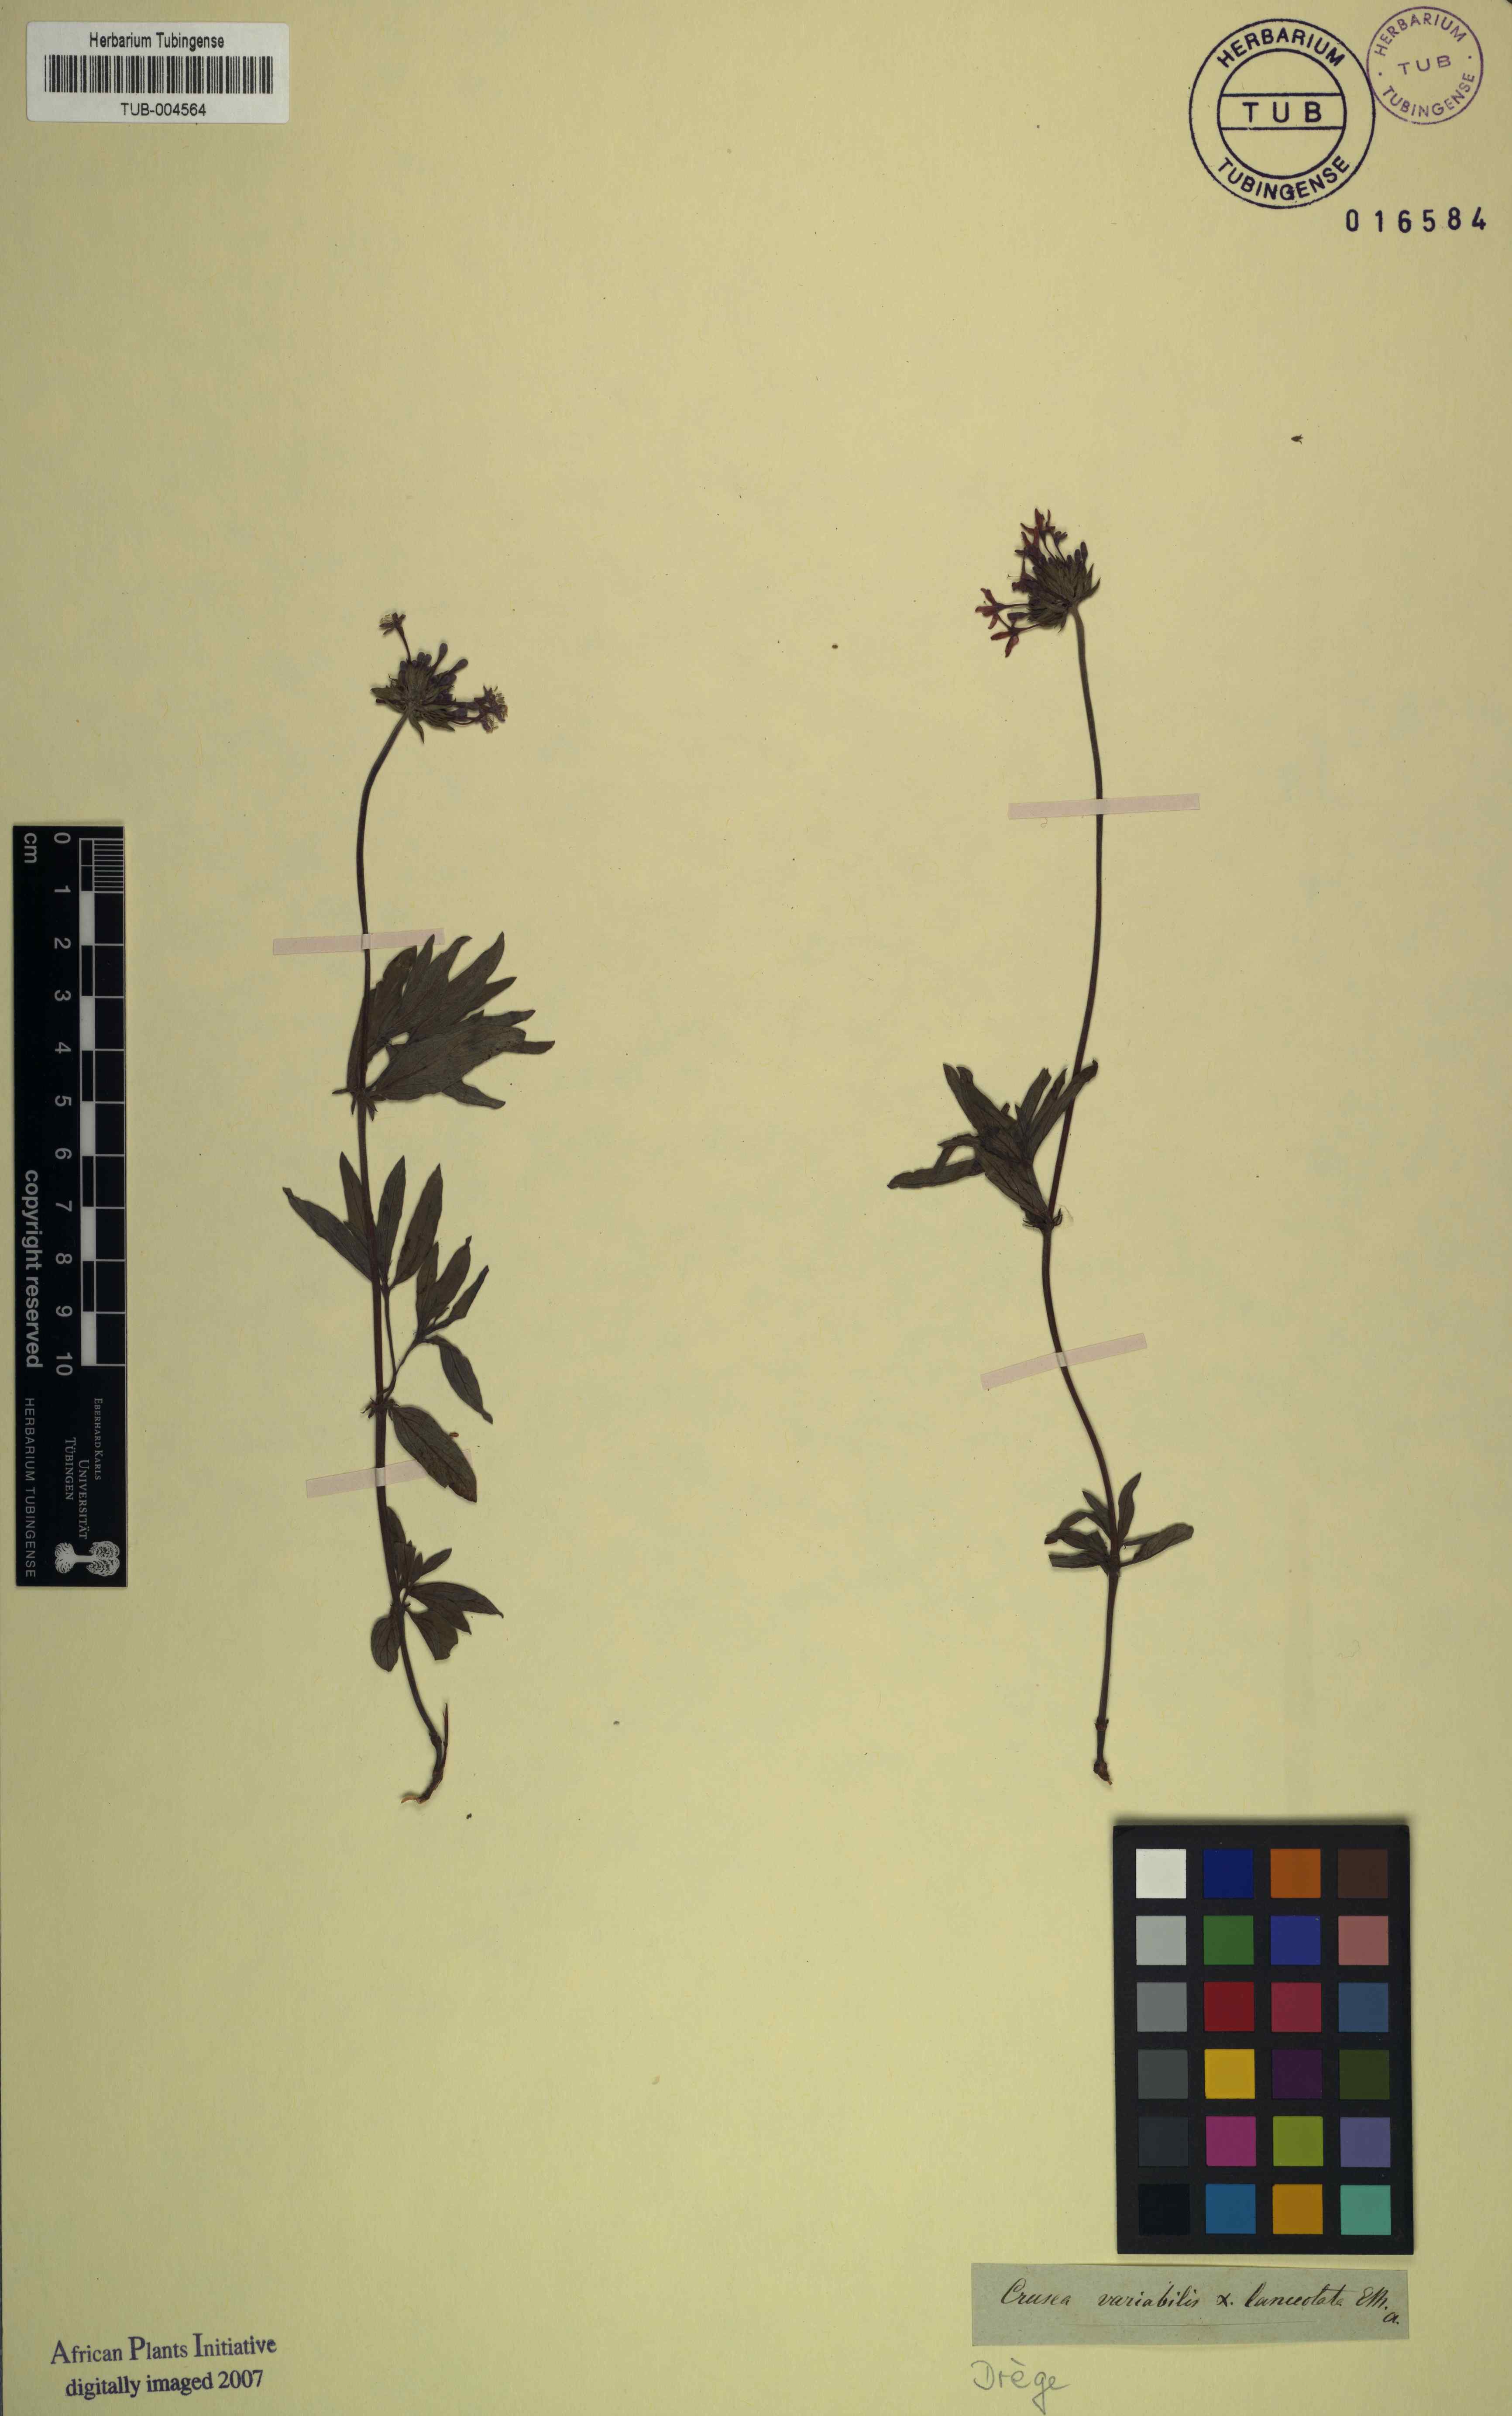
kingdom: Plantae
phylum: Tracheophyta
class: Magnoliopsida
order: Gentianales
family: Rubiaceae
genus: Pentanisia
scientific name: Pentanisia prunelloides
